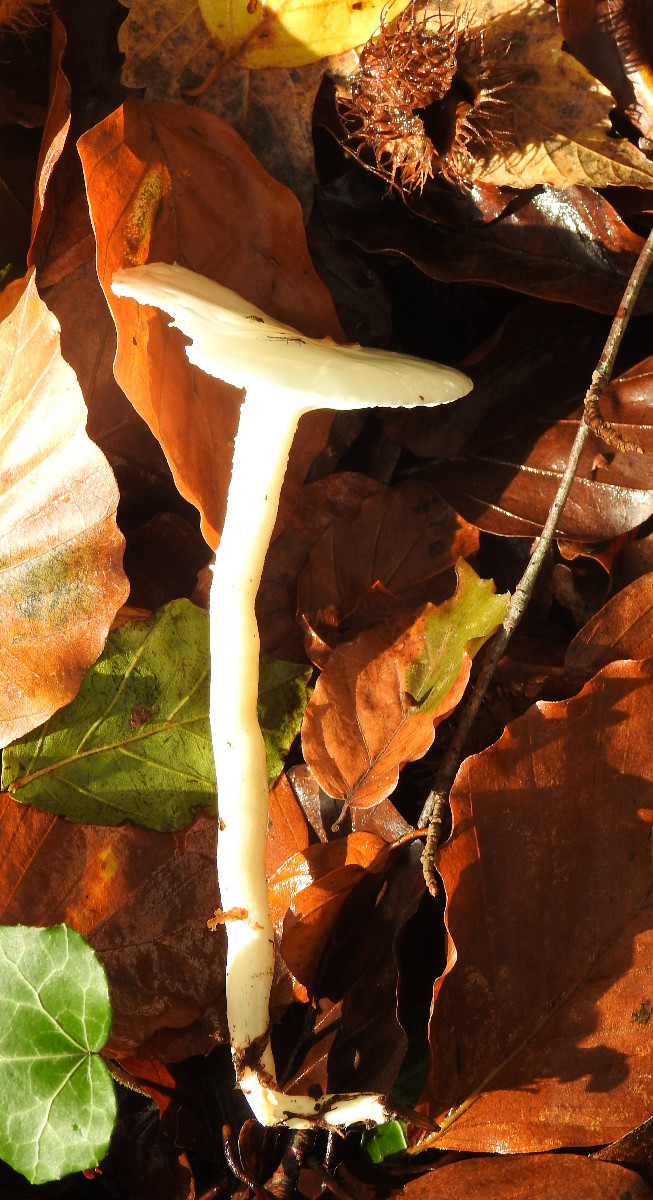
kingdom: Fungi
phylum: Basidiomycota
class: Agaricomycetes
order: Agaricales
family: Hygrophoraceae
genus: Hygrophorus
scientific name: Hygrophorus
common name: sneglehat
